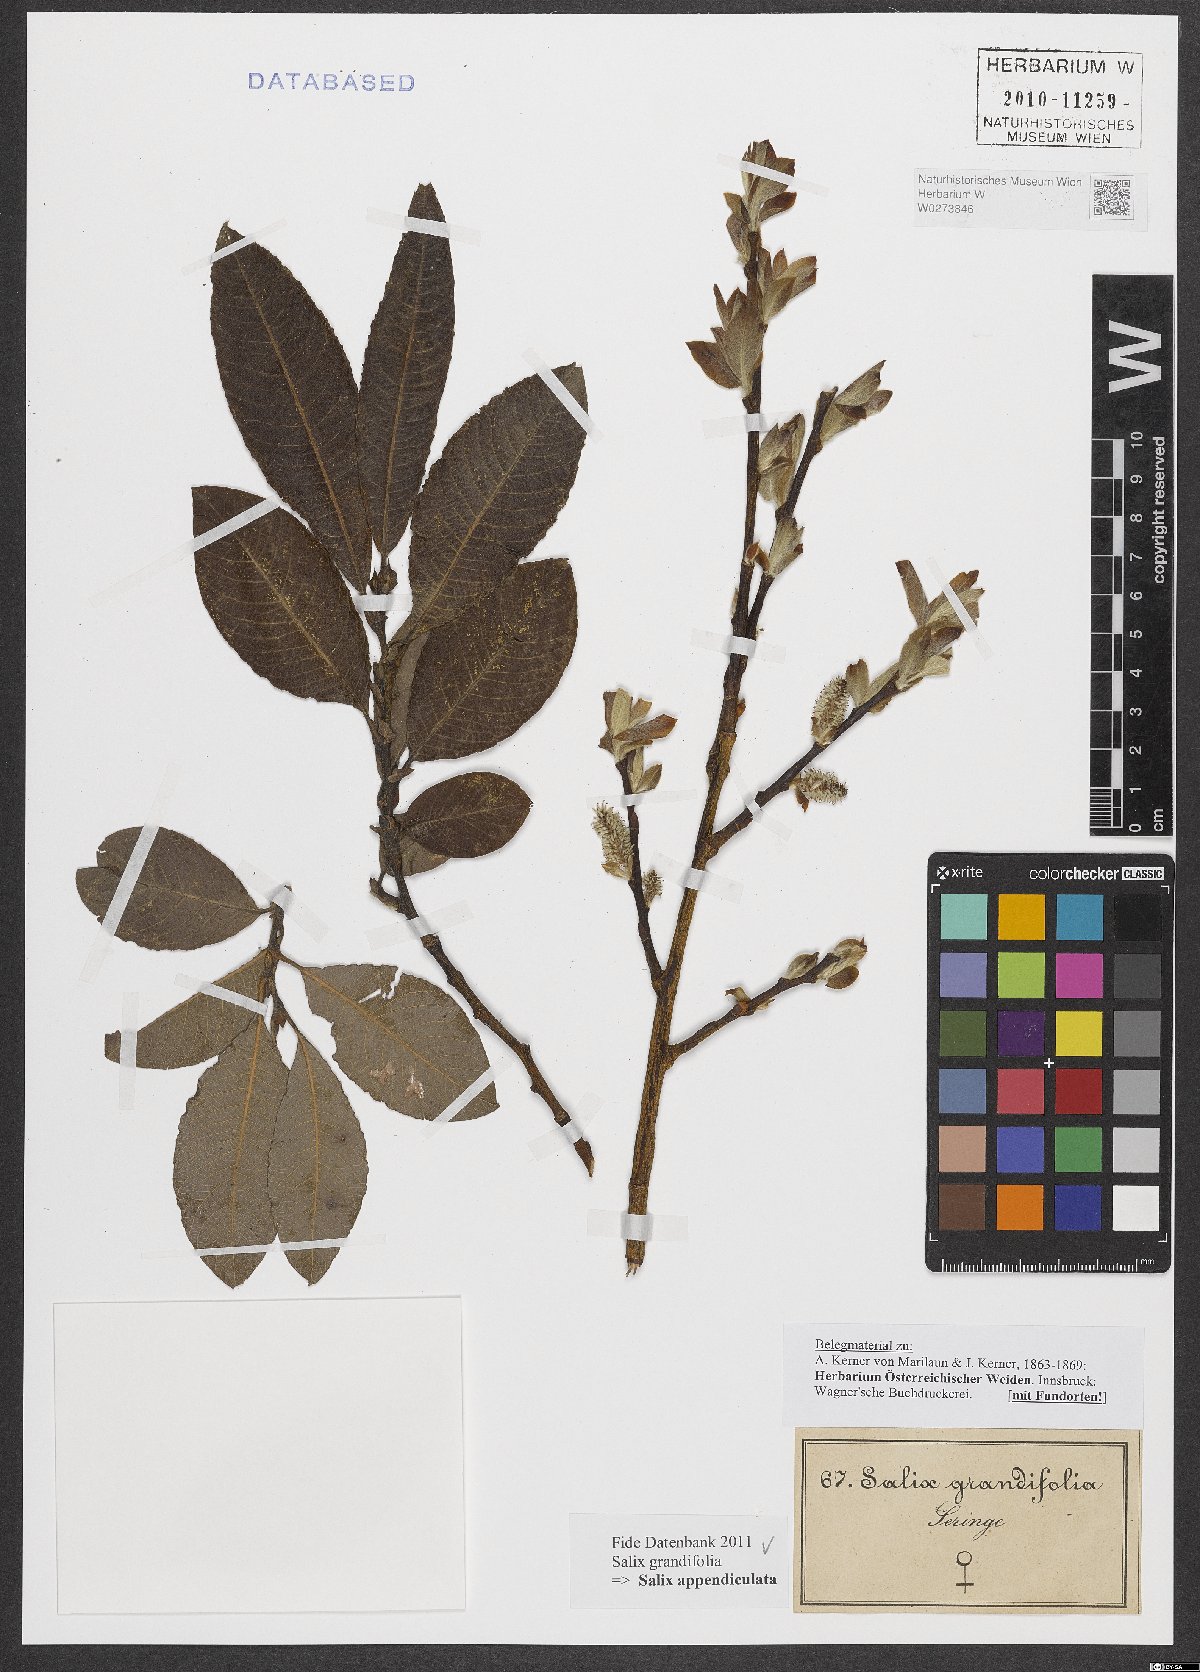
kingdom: Plantae
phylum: Tracheophyta
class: Magnoliopsida
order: Malpighiales
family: Salicaceae
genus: Salix
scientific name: Salix appendiculata
